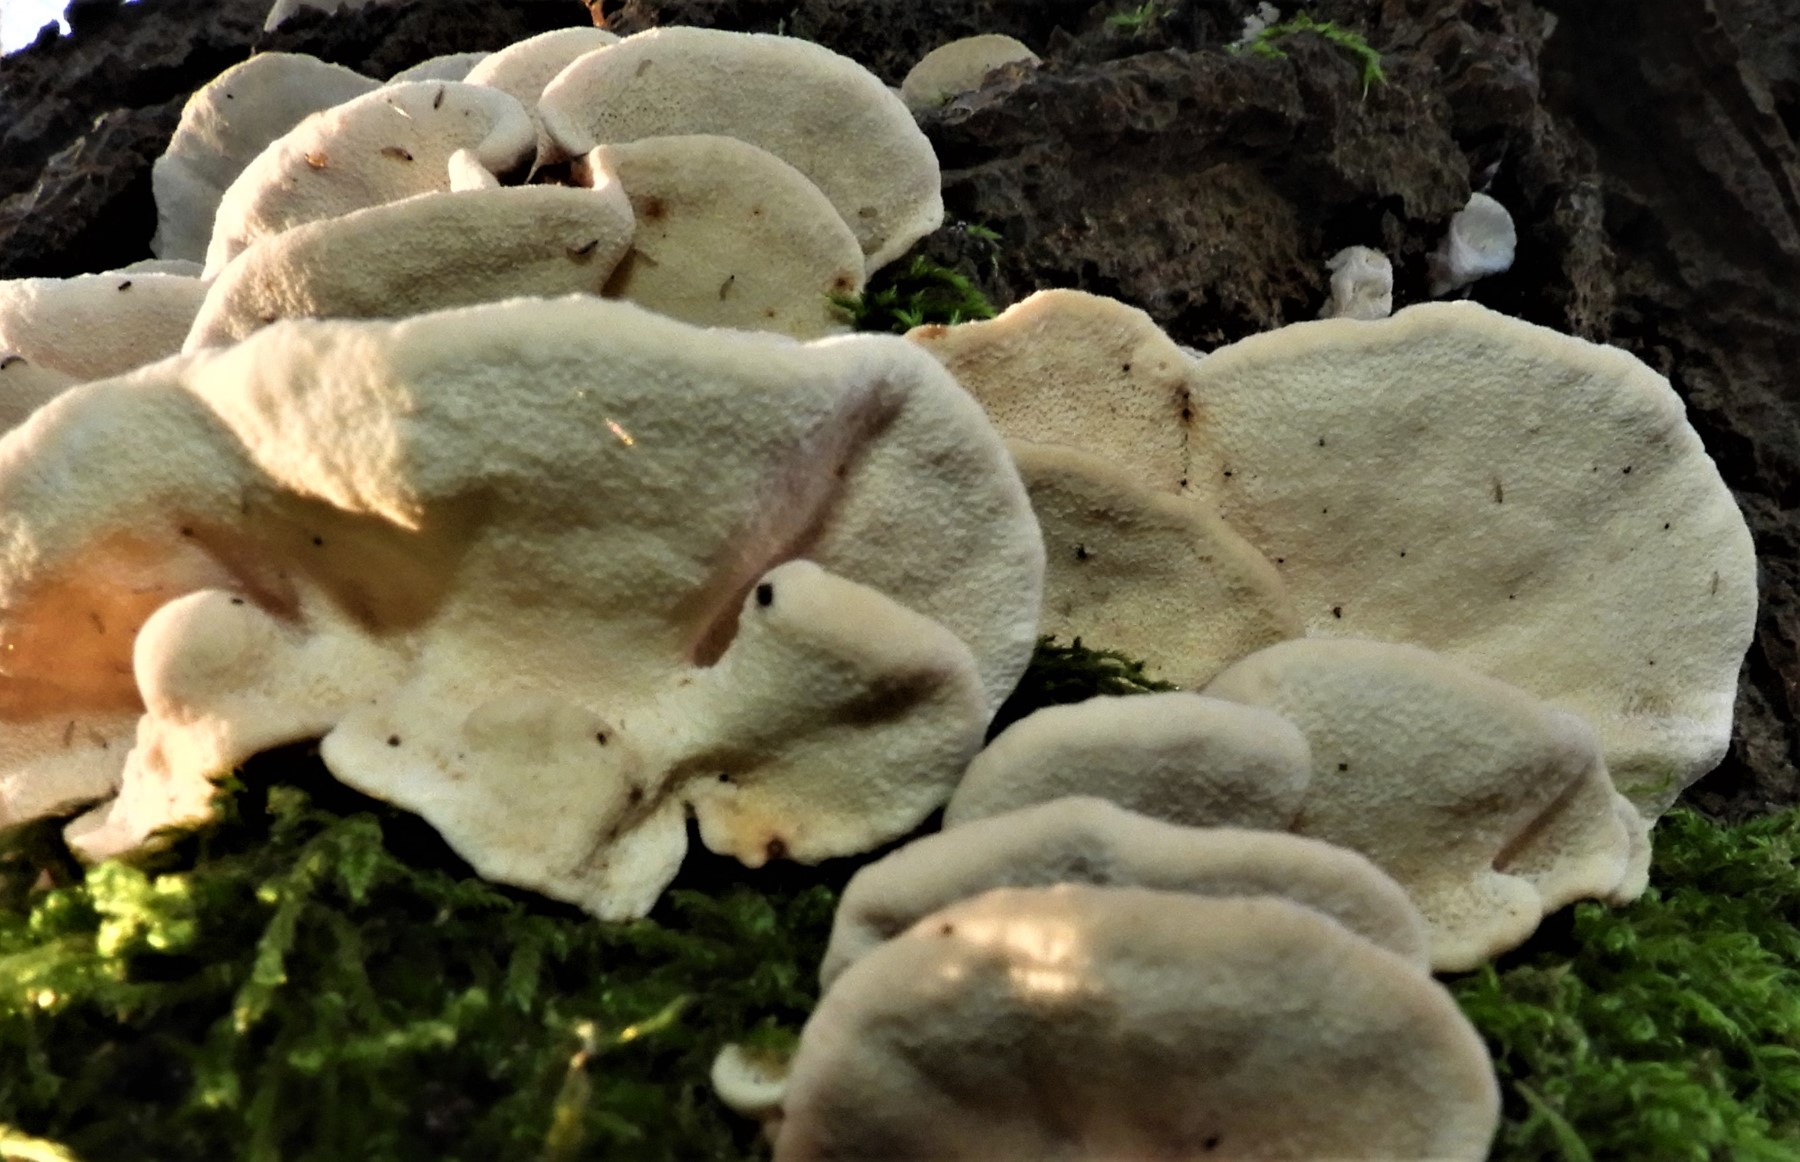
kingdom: Fungi
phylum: Basidiomycota
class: Agaricomycetes
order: Polyporales
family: Polyporaceae
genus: Trametes
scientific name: Trametes versicolor
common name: broget læderporesvamp
